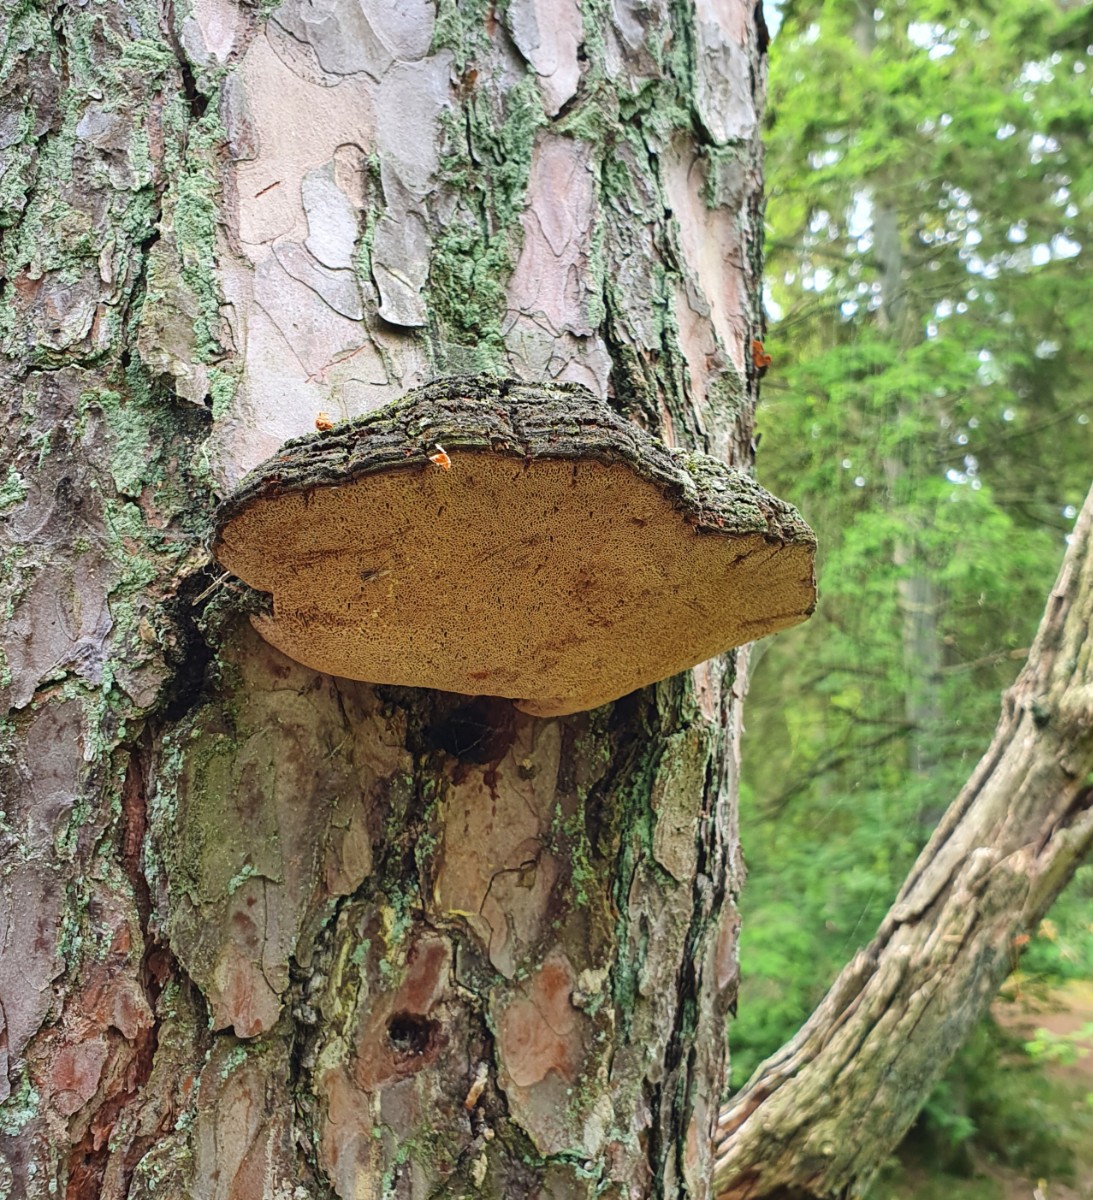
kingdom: Fungi
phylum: Basidiomycota
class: Agaricomycetes
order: Hymenochaetales
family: Hymenochaetaceae
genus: Porodaedalea
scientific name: Porodaedalea pini
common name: fyrre-ildporesvamp
